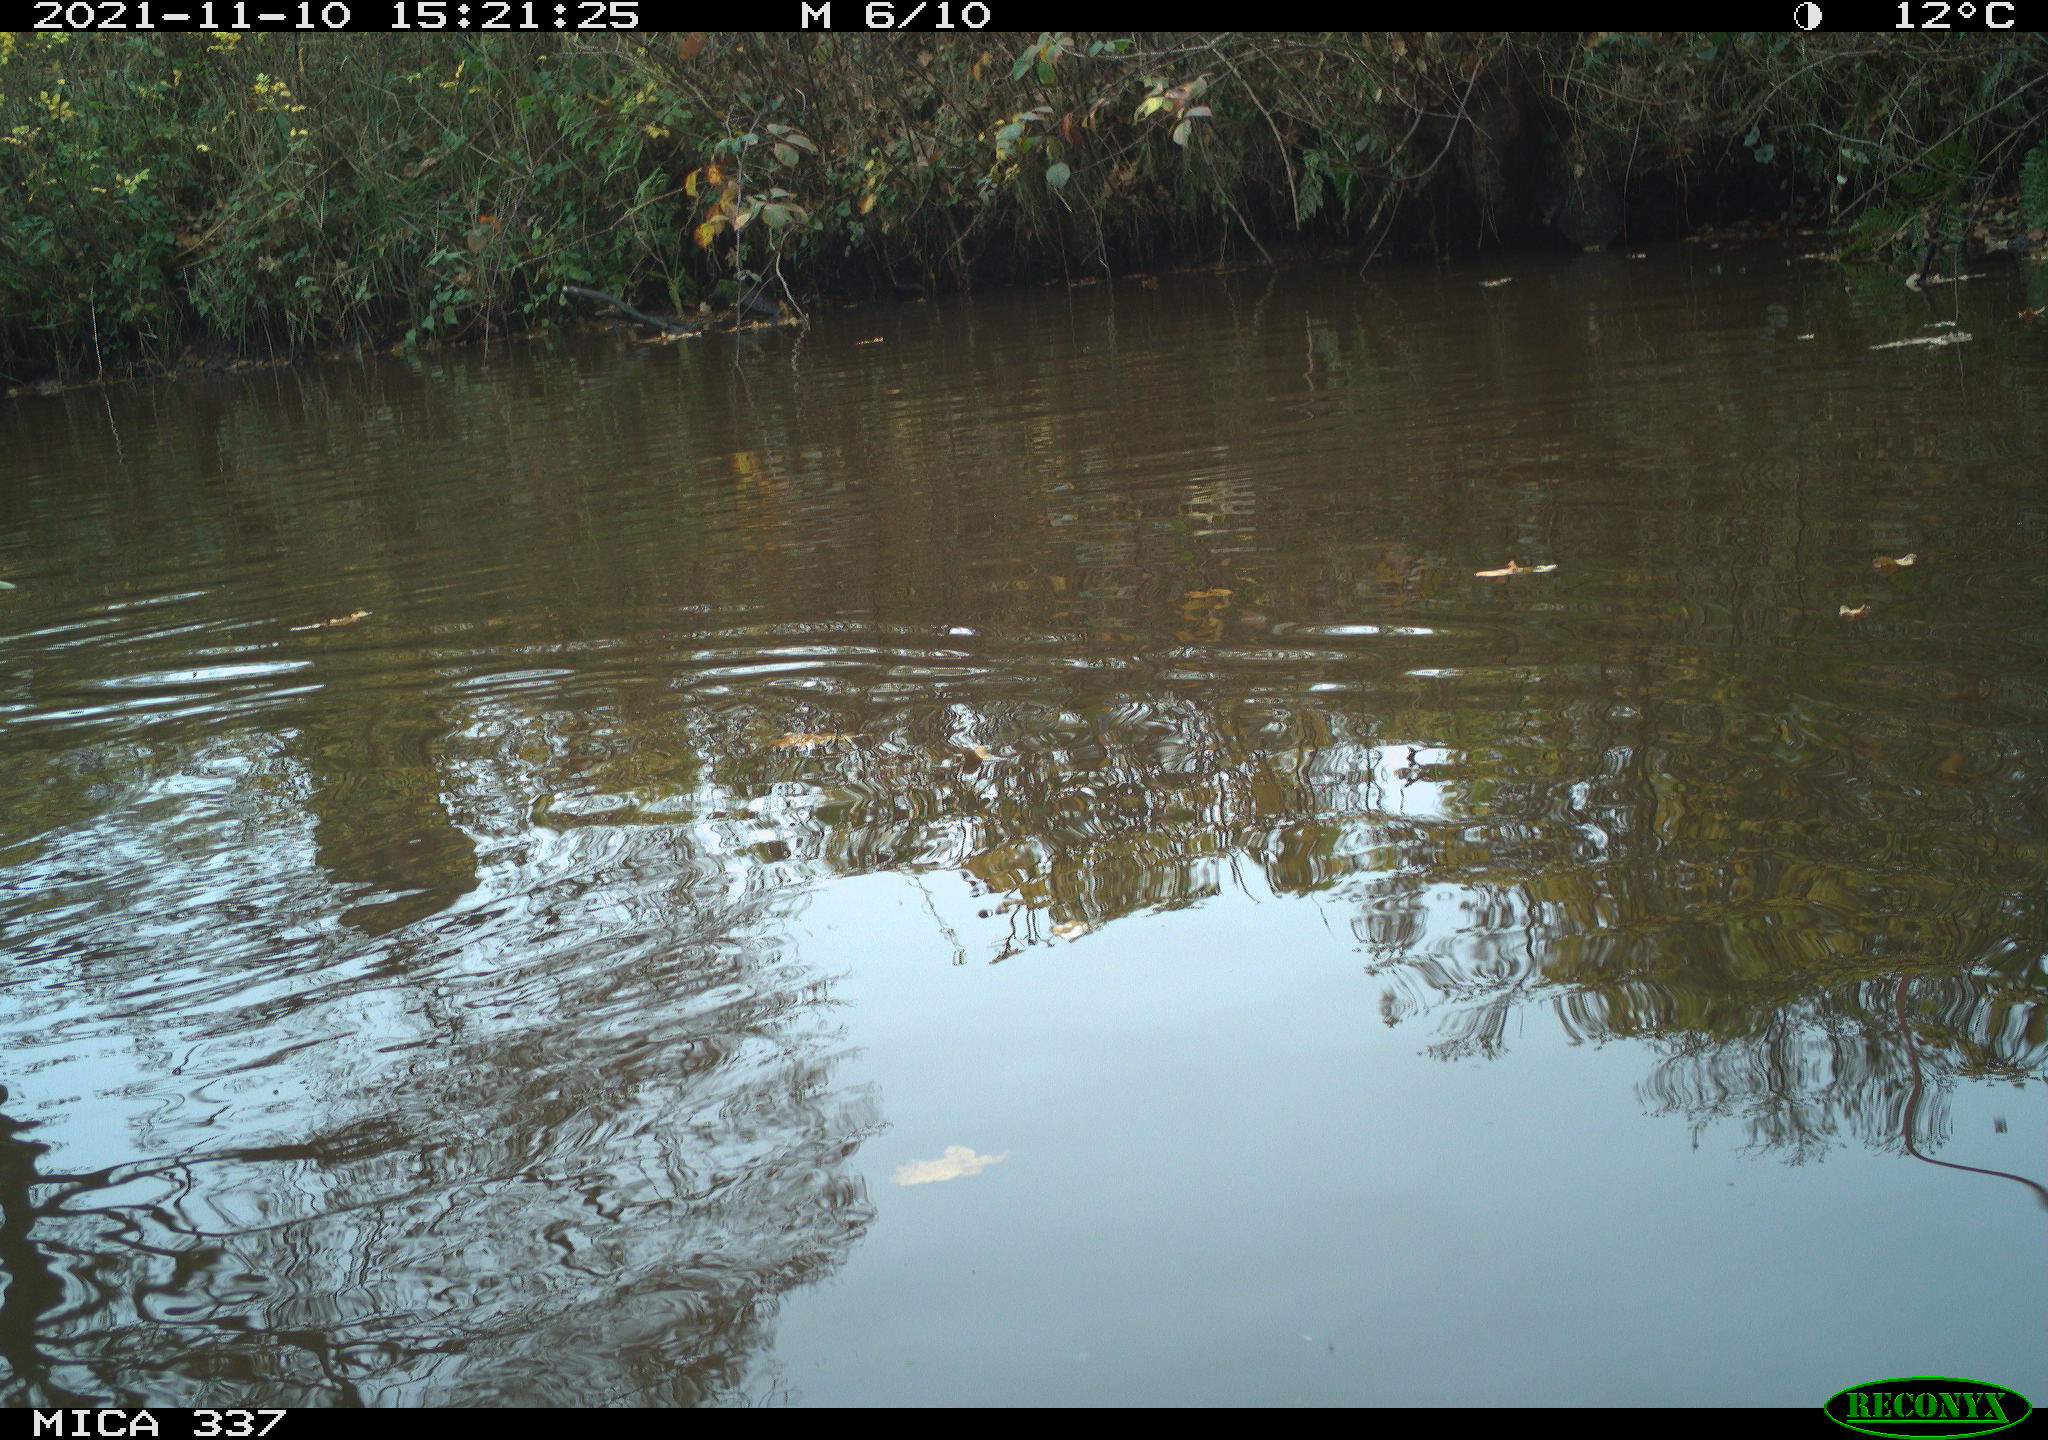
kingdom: Animalia
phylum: Chordata
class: Aves
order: Anseriformes
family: Anatidae
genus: Anas
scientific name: Anas platyrhynchos
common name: Mallard
